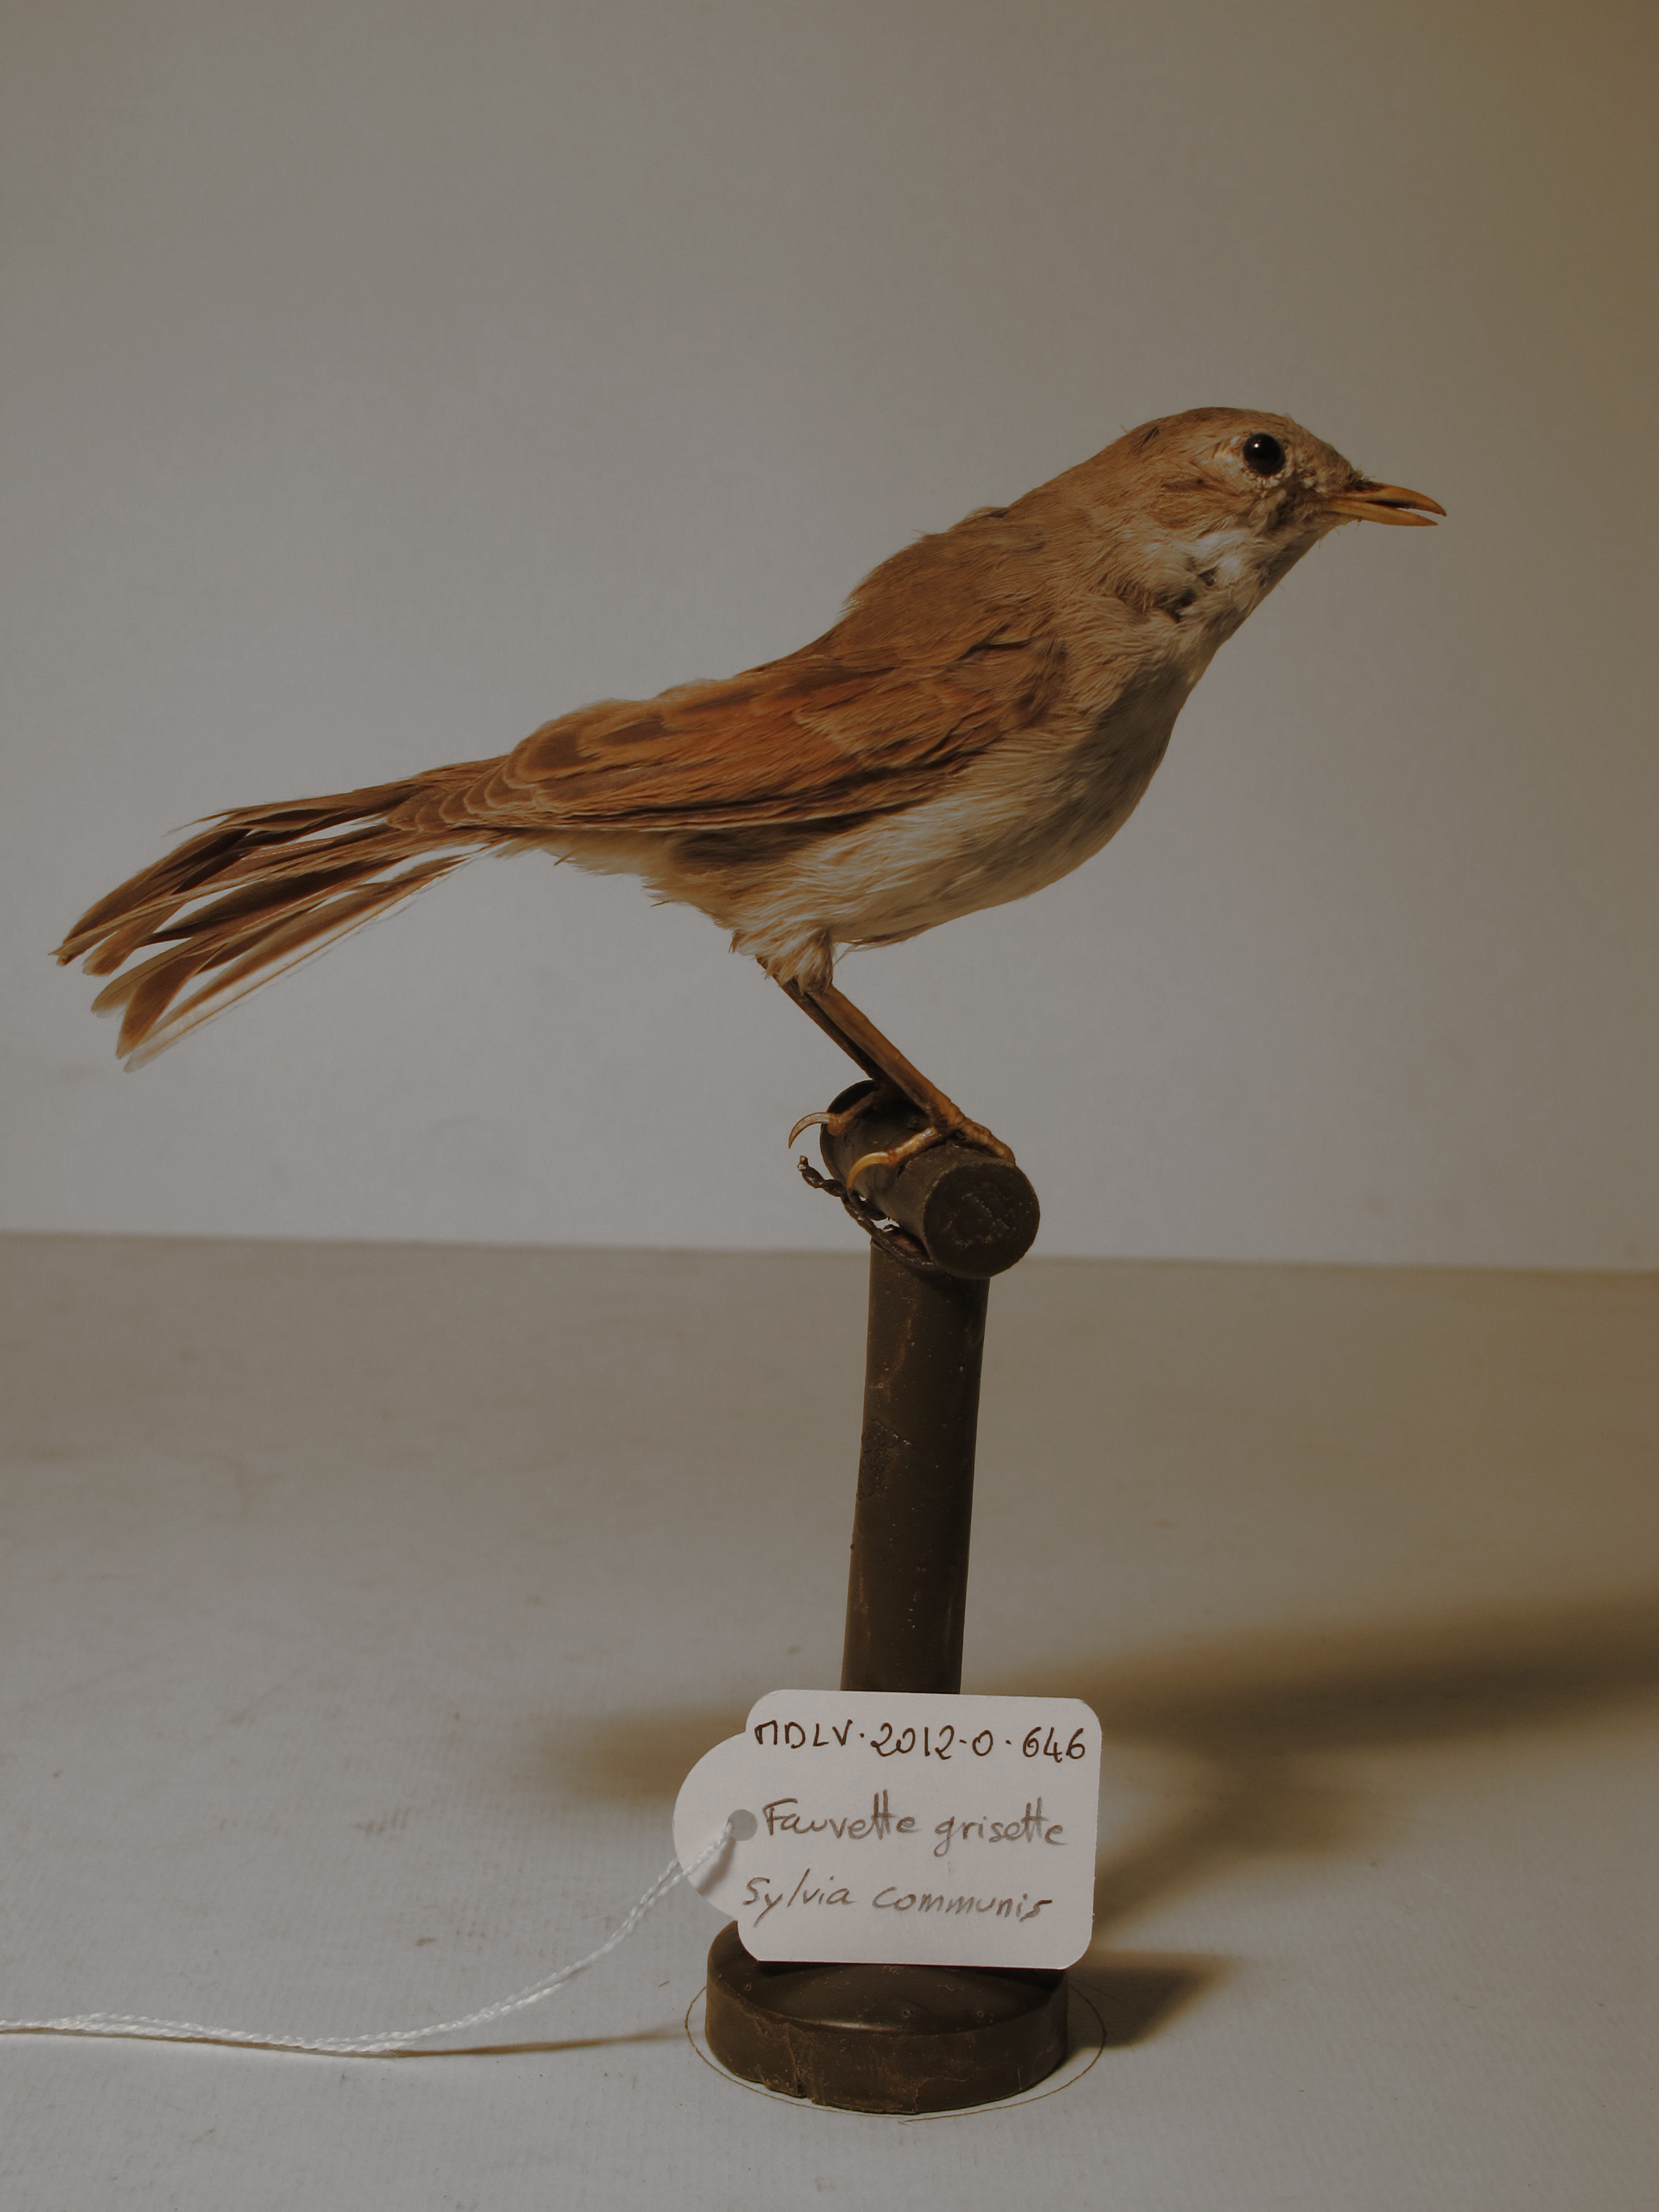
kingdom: Animalia
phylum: Chordata
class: Aves
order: Passeriformes
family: Sylviidae
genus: Sylvia
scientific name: Sylvia communis
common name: Common Whitethroat
